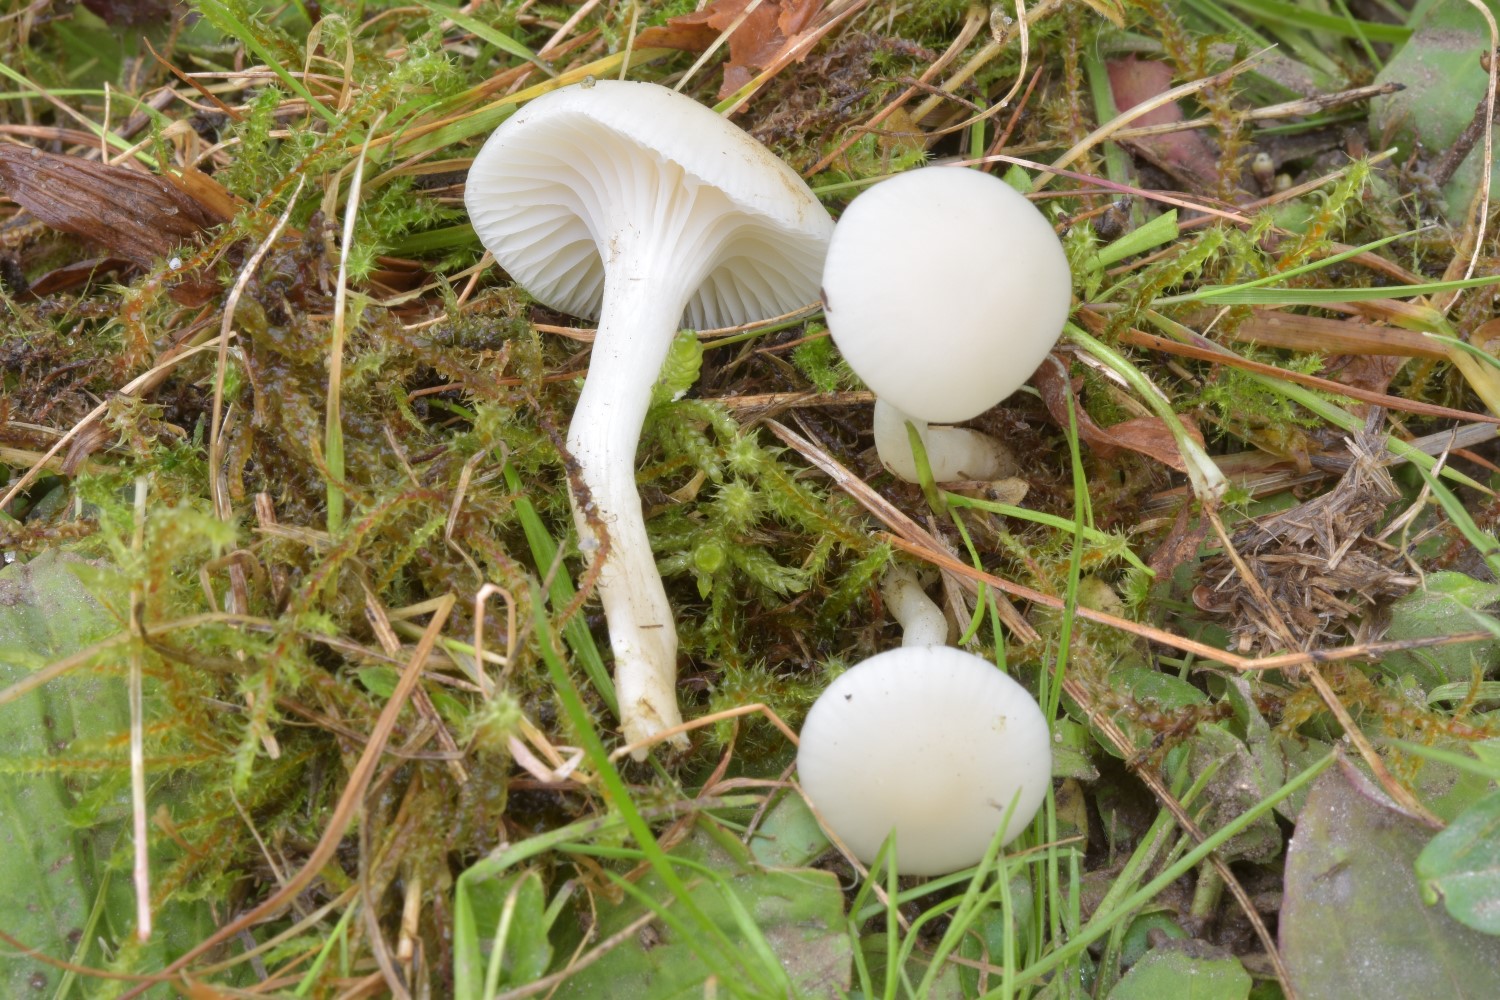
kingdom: Fungi
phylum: Basidiomycota
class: Agaricomycetes
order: Agaricales
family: Hygrophoraceae
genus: Cuphophyllus
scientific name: Cuphophyllus virgineus
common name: snehvid vokshat
